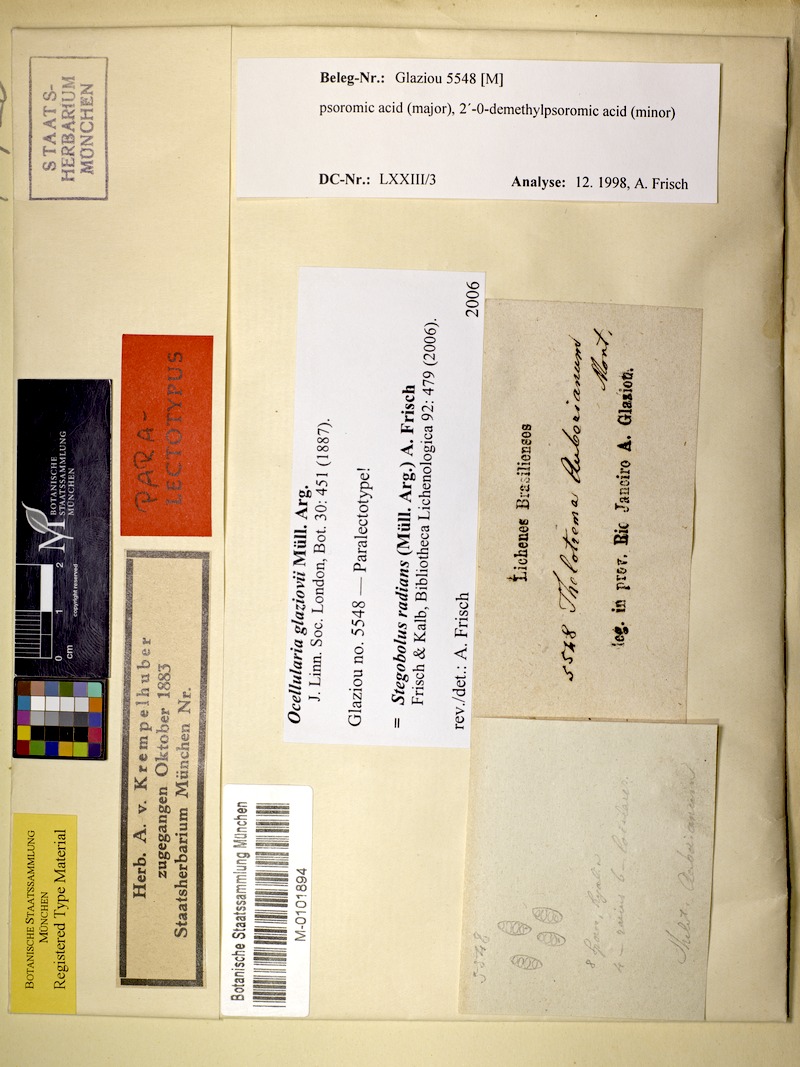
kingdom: Fungi
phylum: Ascomycota
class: Lecanoromycetes
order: Ostropales
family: Graphidaceae
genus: Stegobolus
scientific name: Stegobolus radians
